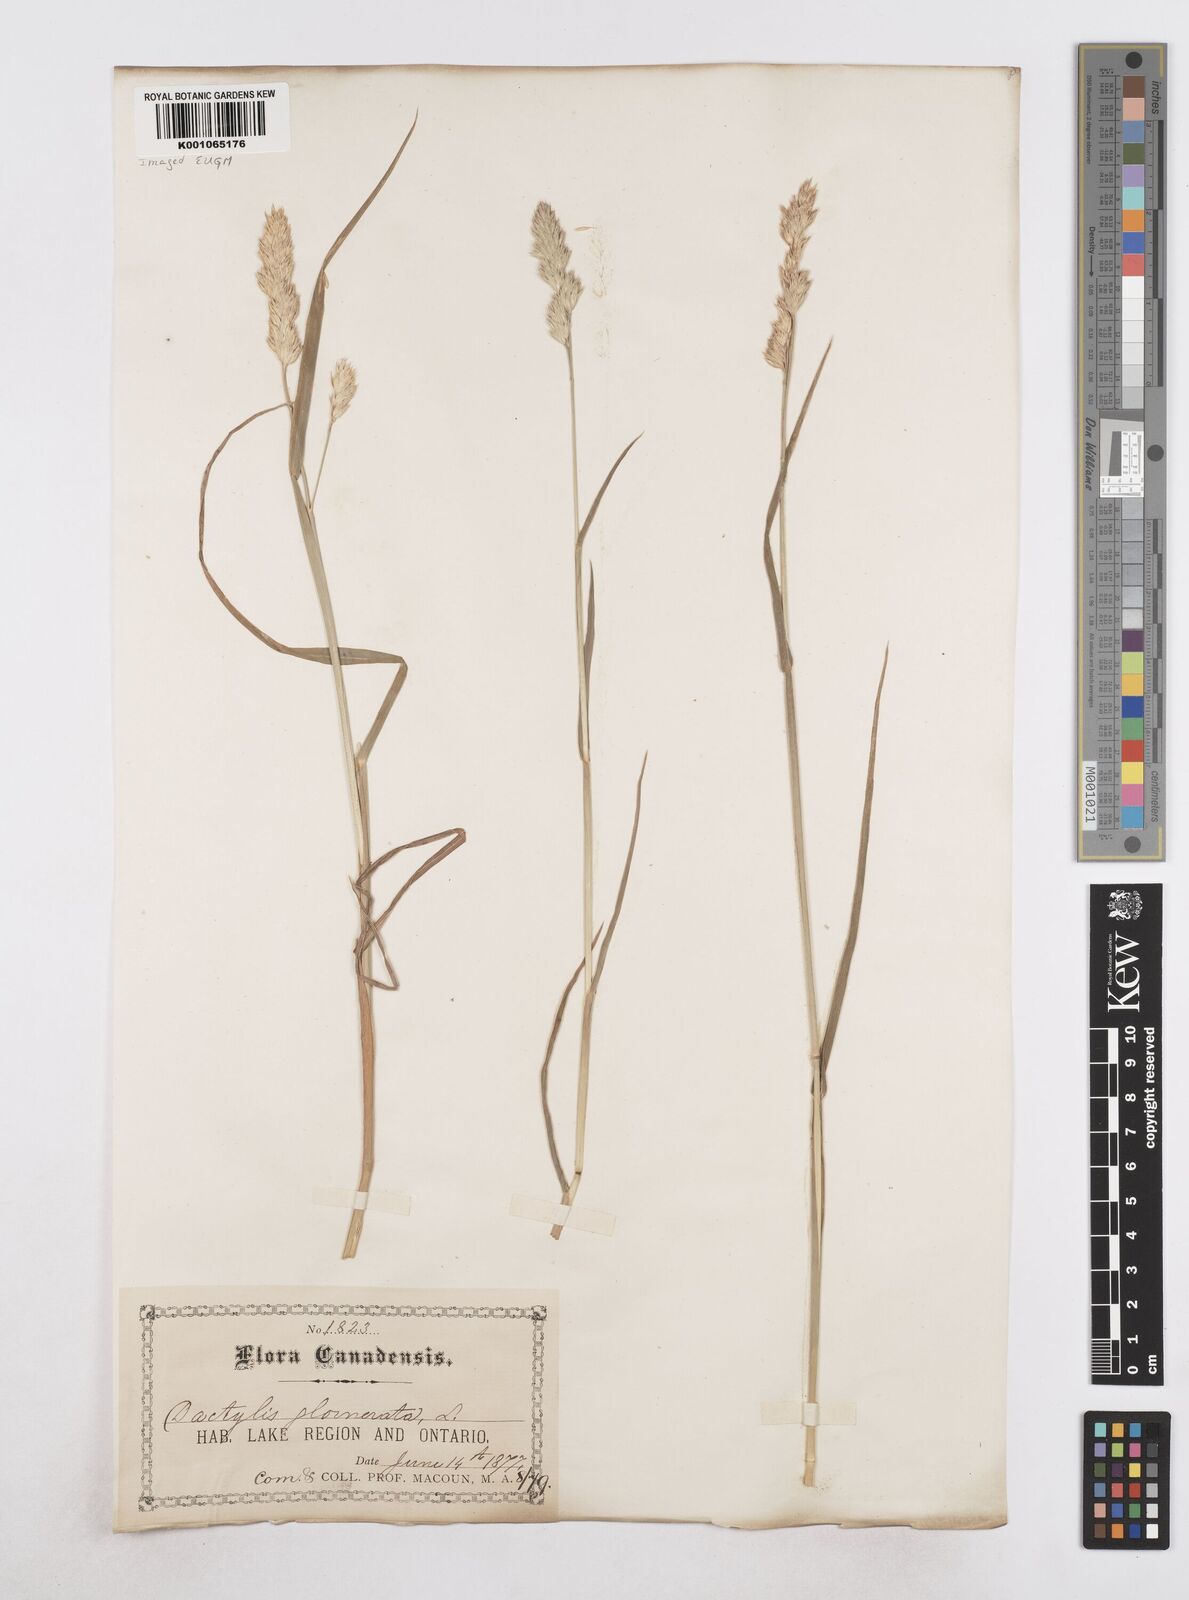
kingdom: Plantae
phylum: Tracheophyta
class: Liliopsida
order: Poales
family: Poaceae
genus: Dactylis
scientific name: Dactylis glomerata
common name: Orchardgrass
